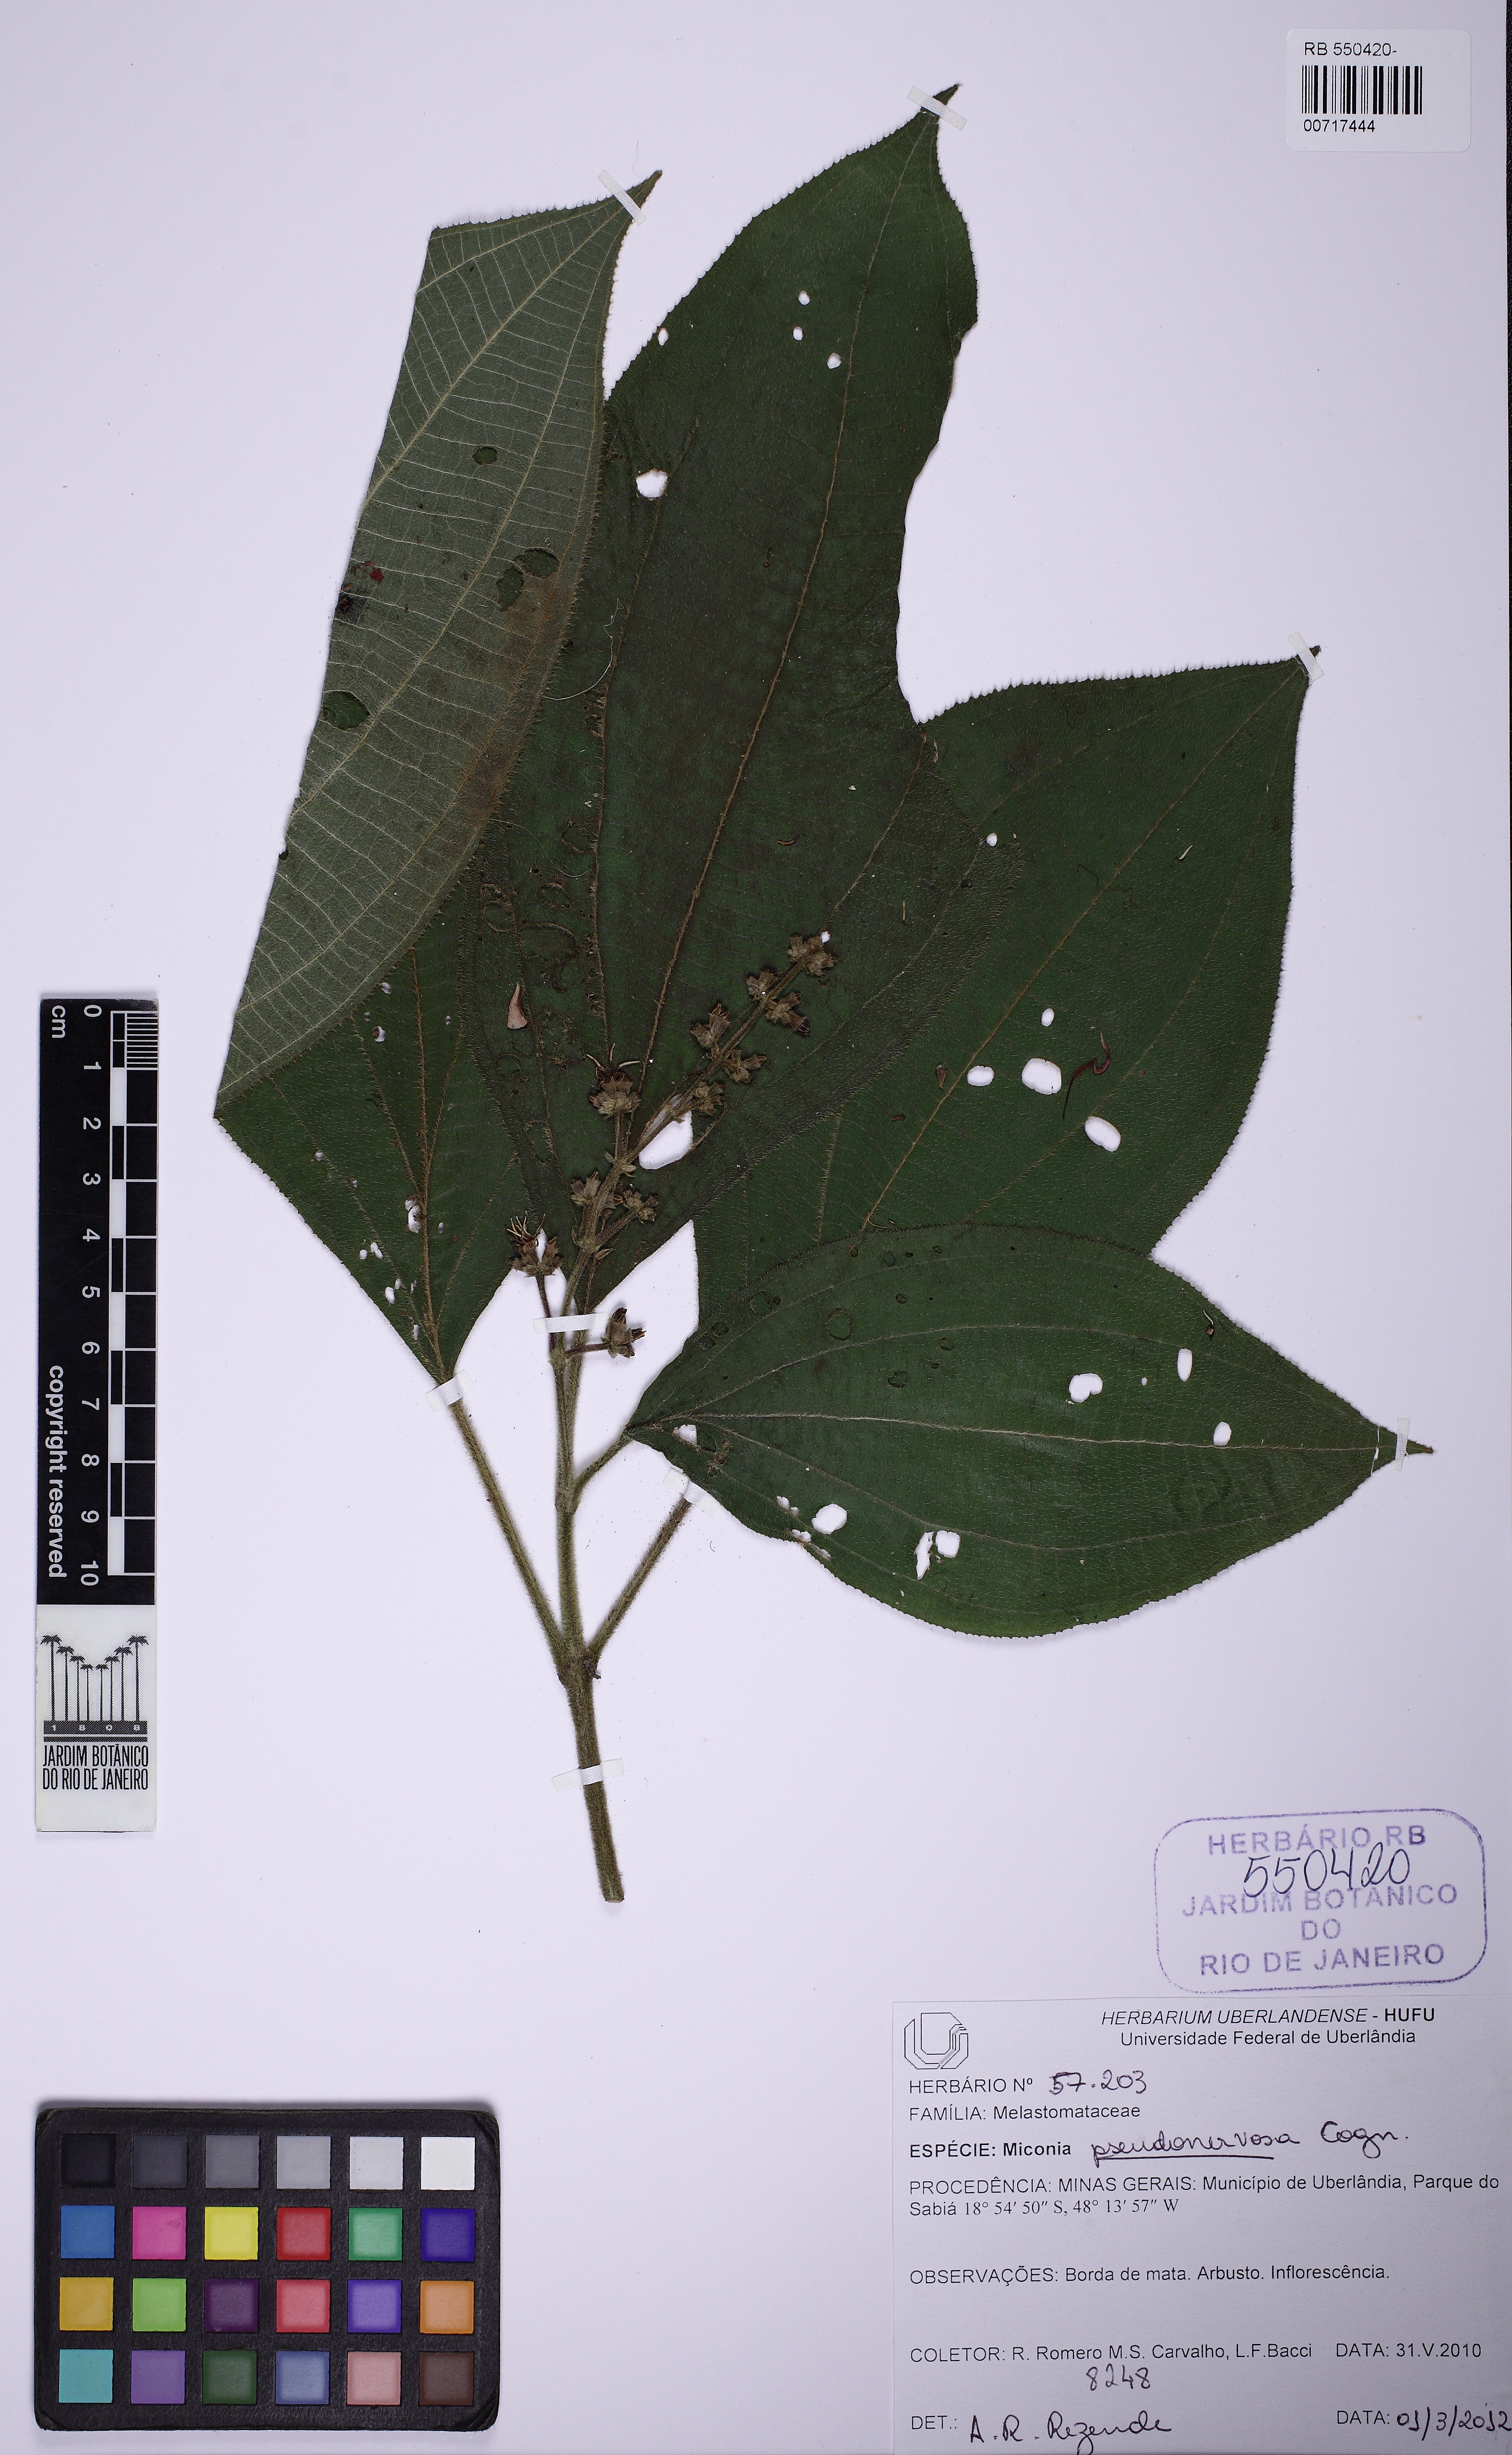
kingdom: Plantae
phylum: Tracheophyta
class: Magnoliopsida
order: Myrtales
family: Melastomataceae
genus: Miconia
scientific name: Miconia pseudonervosa
